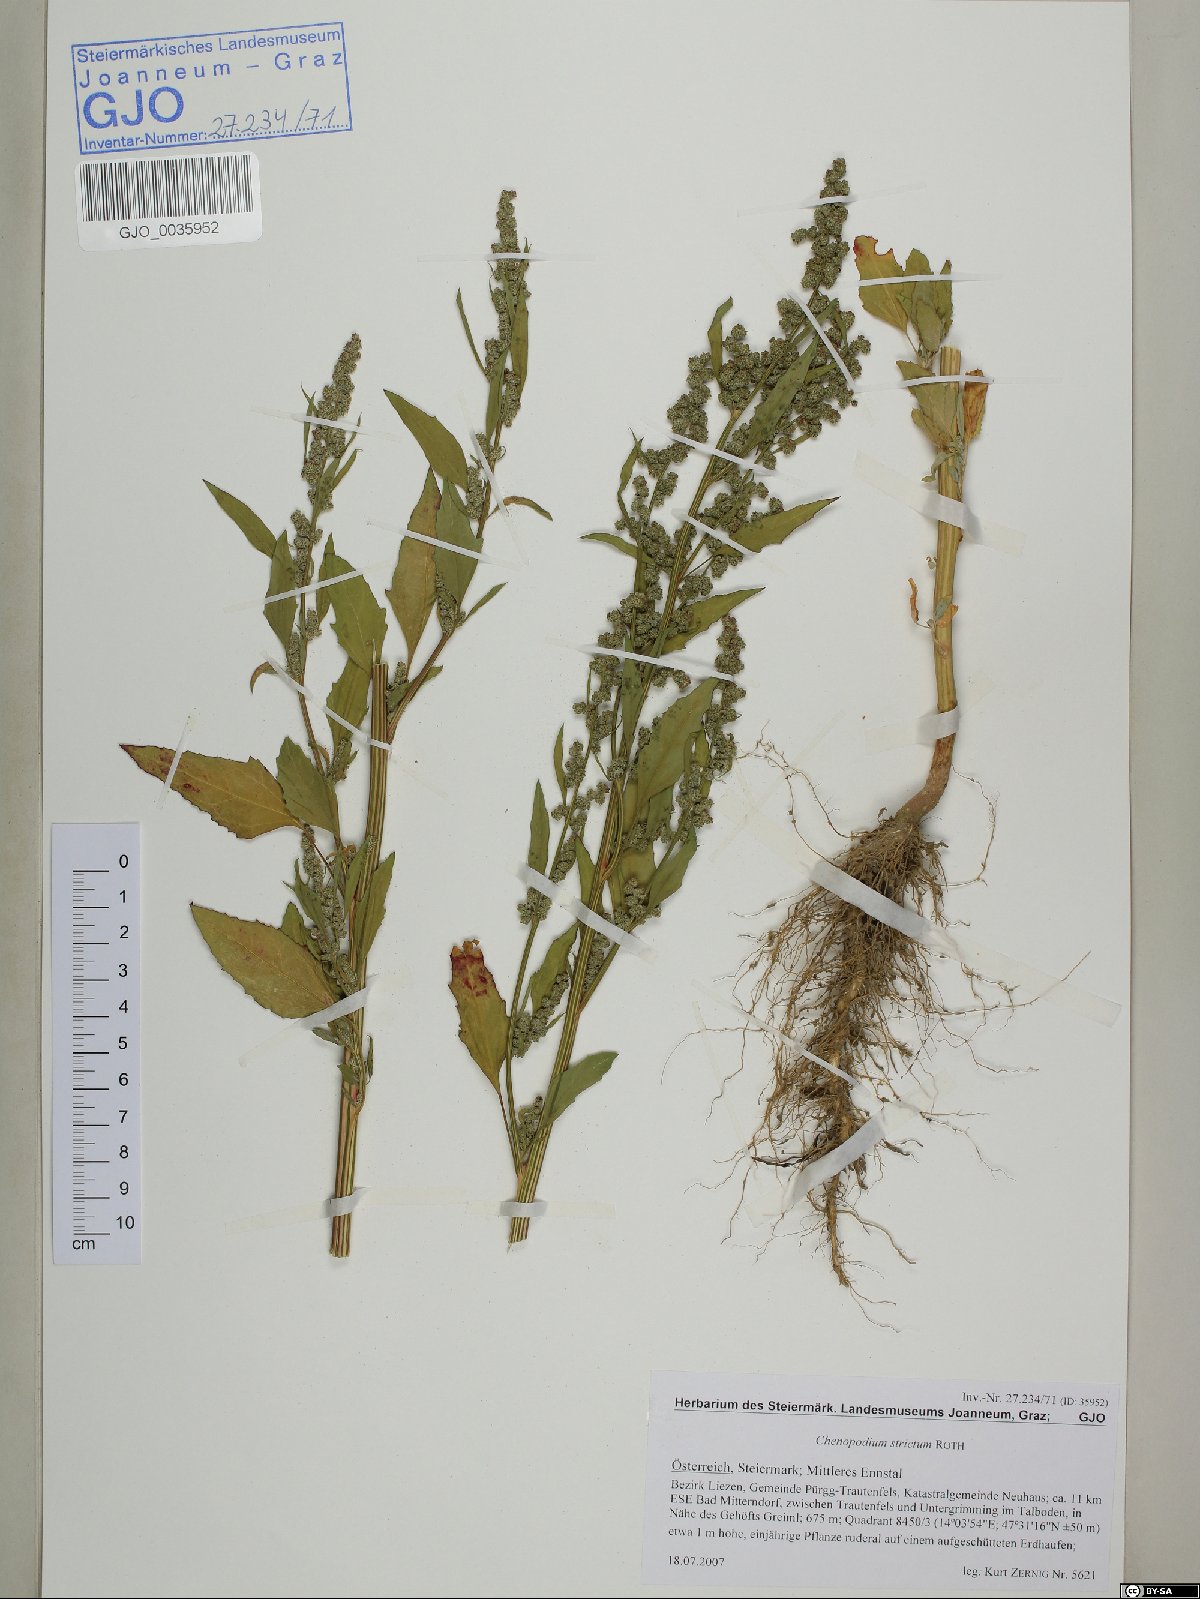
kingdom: Plantae
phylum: Tracheophyta
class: Magnoliopsida
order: Caryophyllales
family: Amaranthaceae
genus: Chenopodium
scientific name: Chenopodium album
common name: Fat-hen
